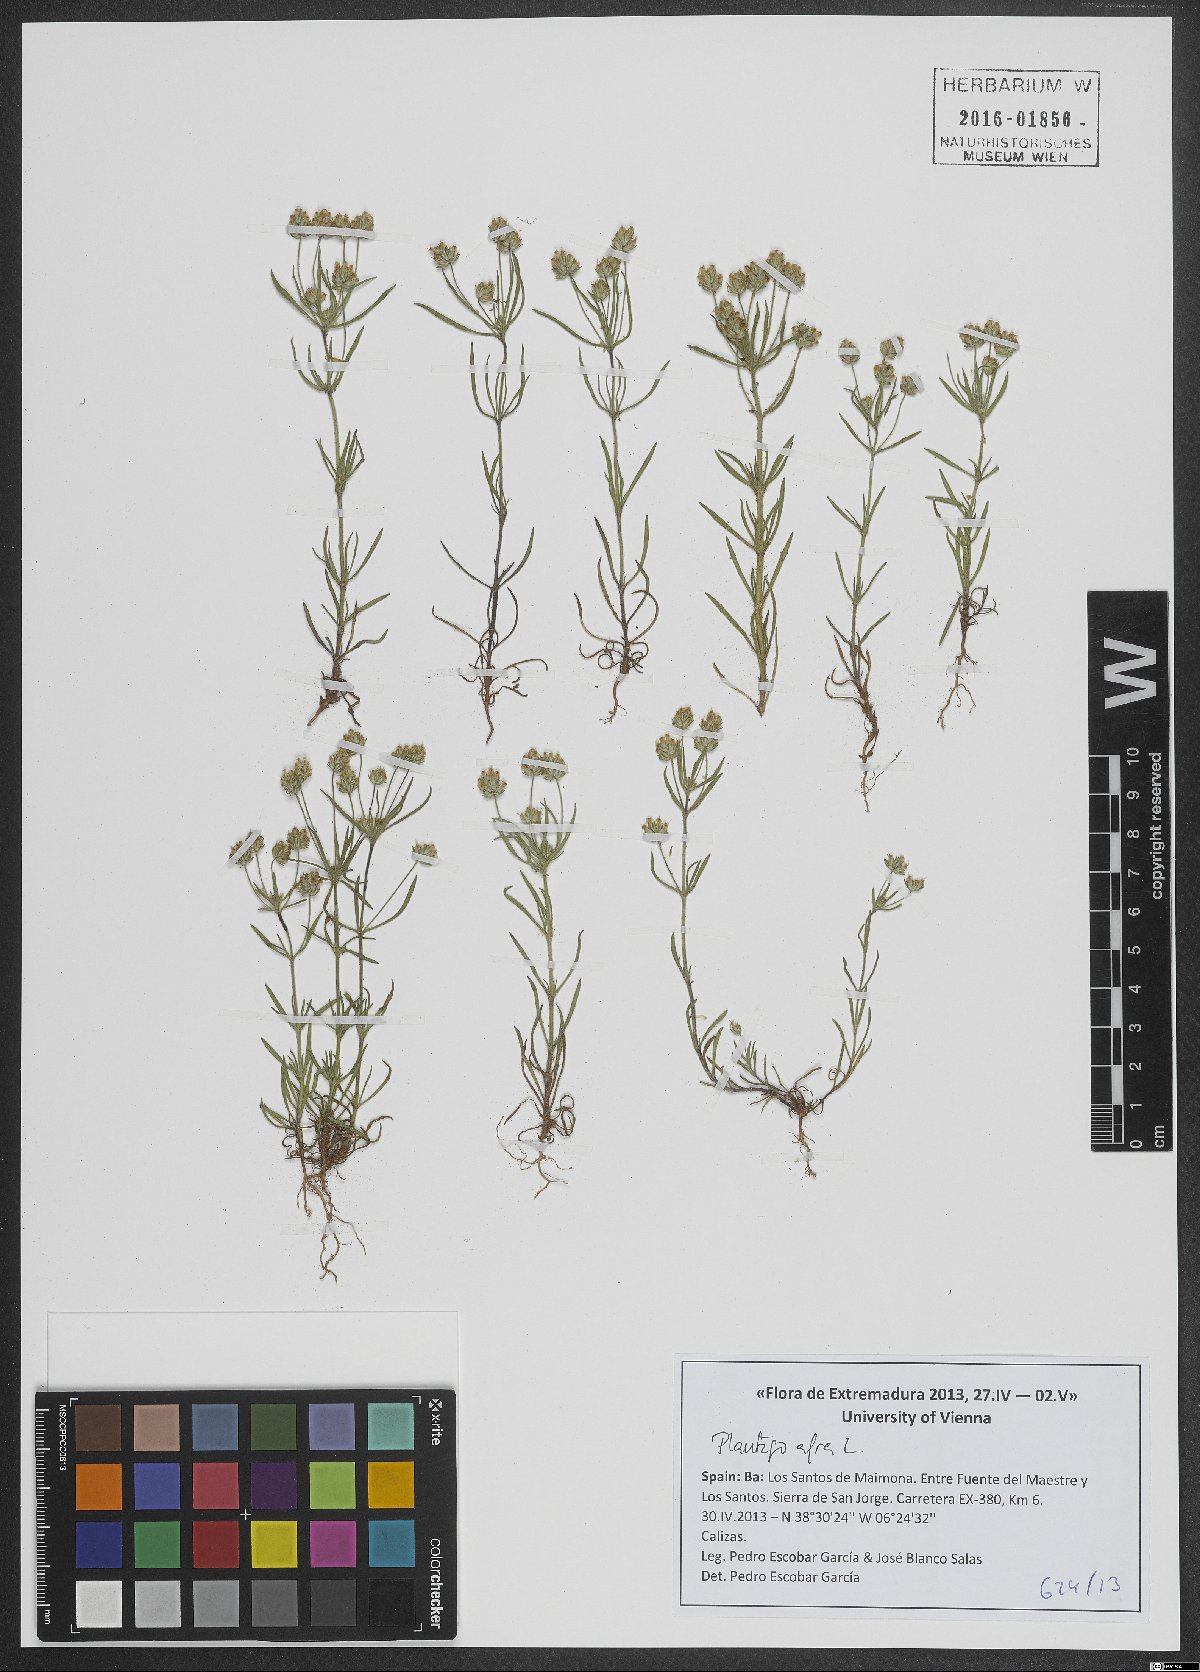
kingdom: Plantae
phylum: Tracheophyta
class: Magnoliopsida
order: Lamiales
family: Plantaginaceae
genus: Plantago
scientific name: Plantago afra
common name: Glandular plantain
